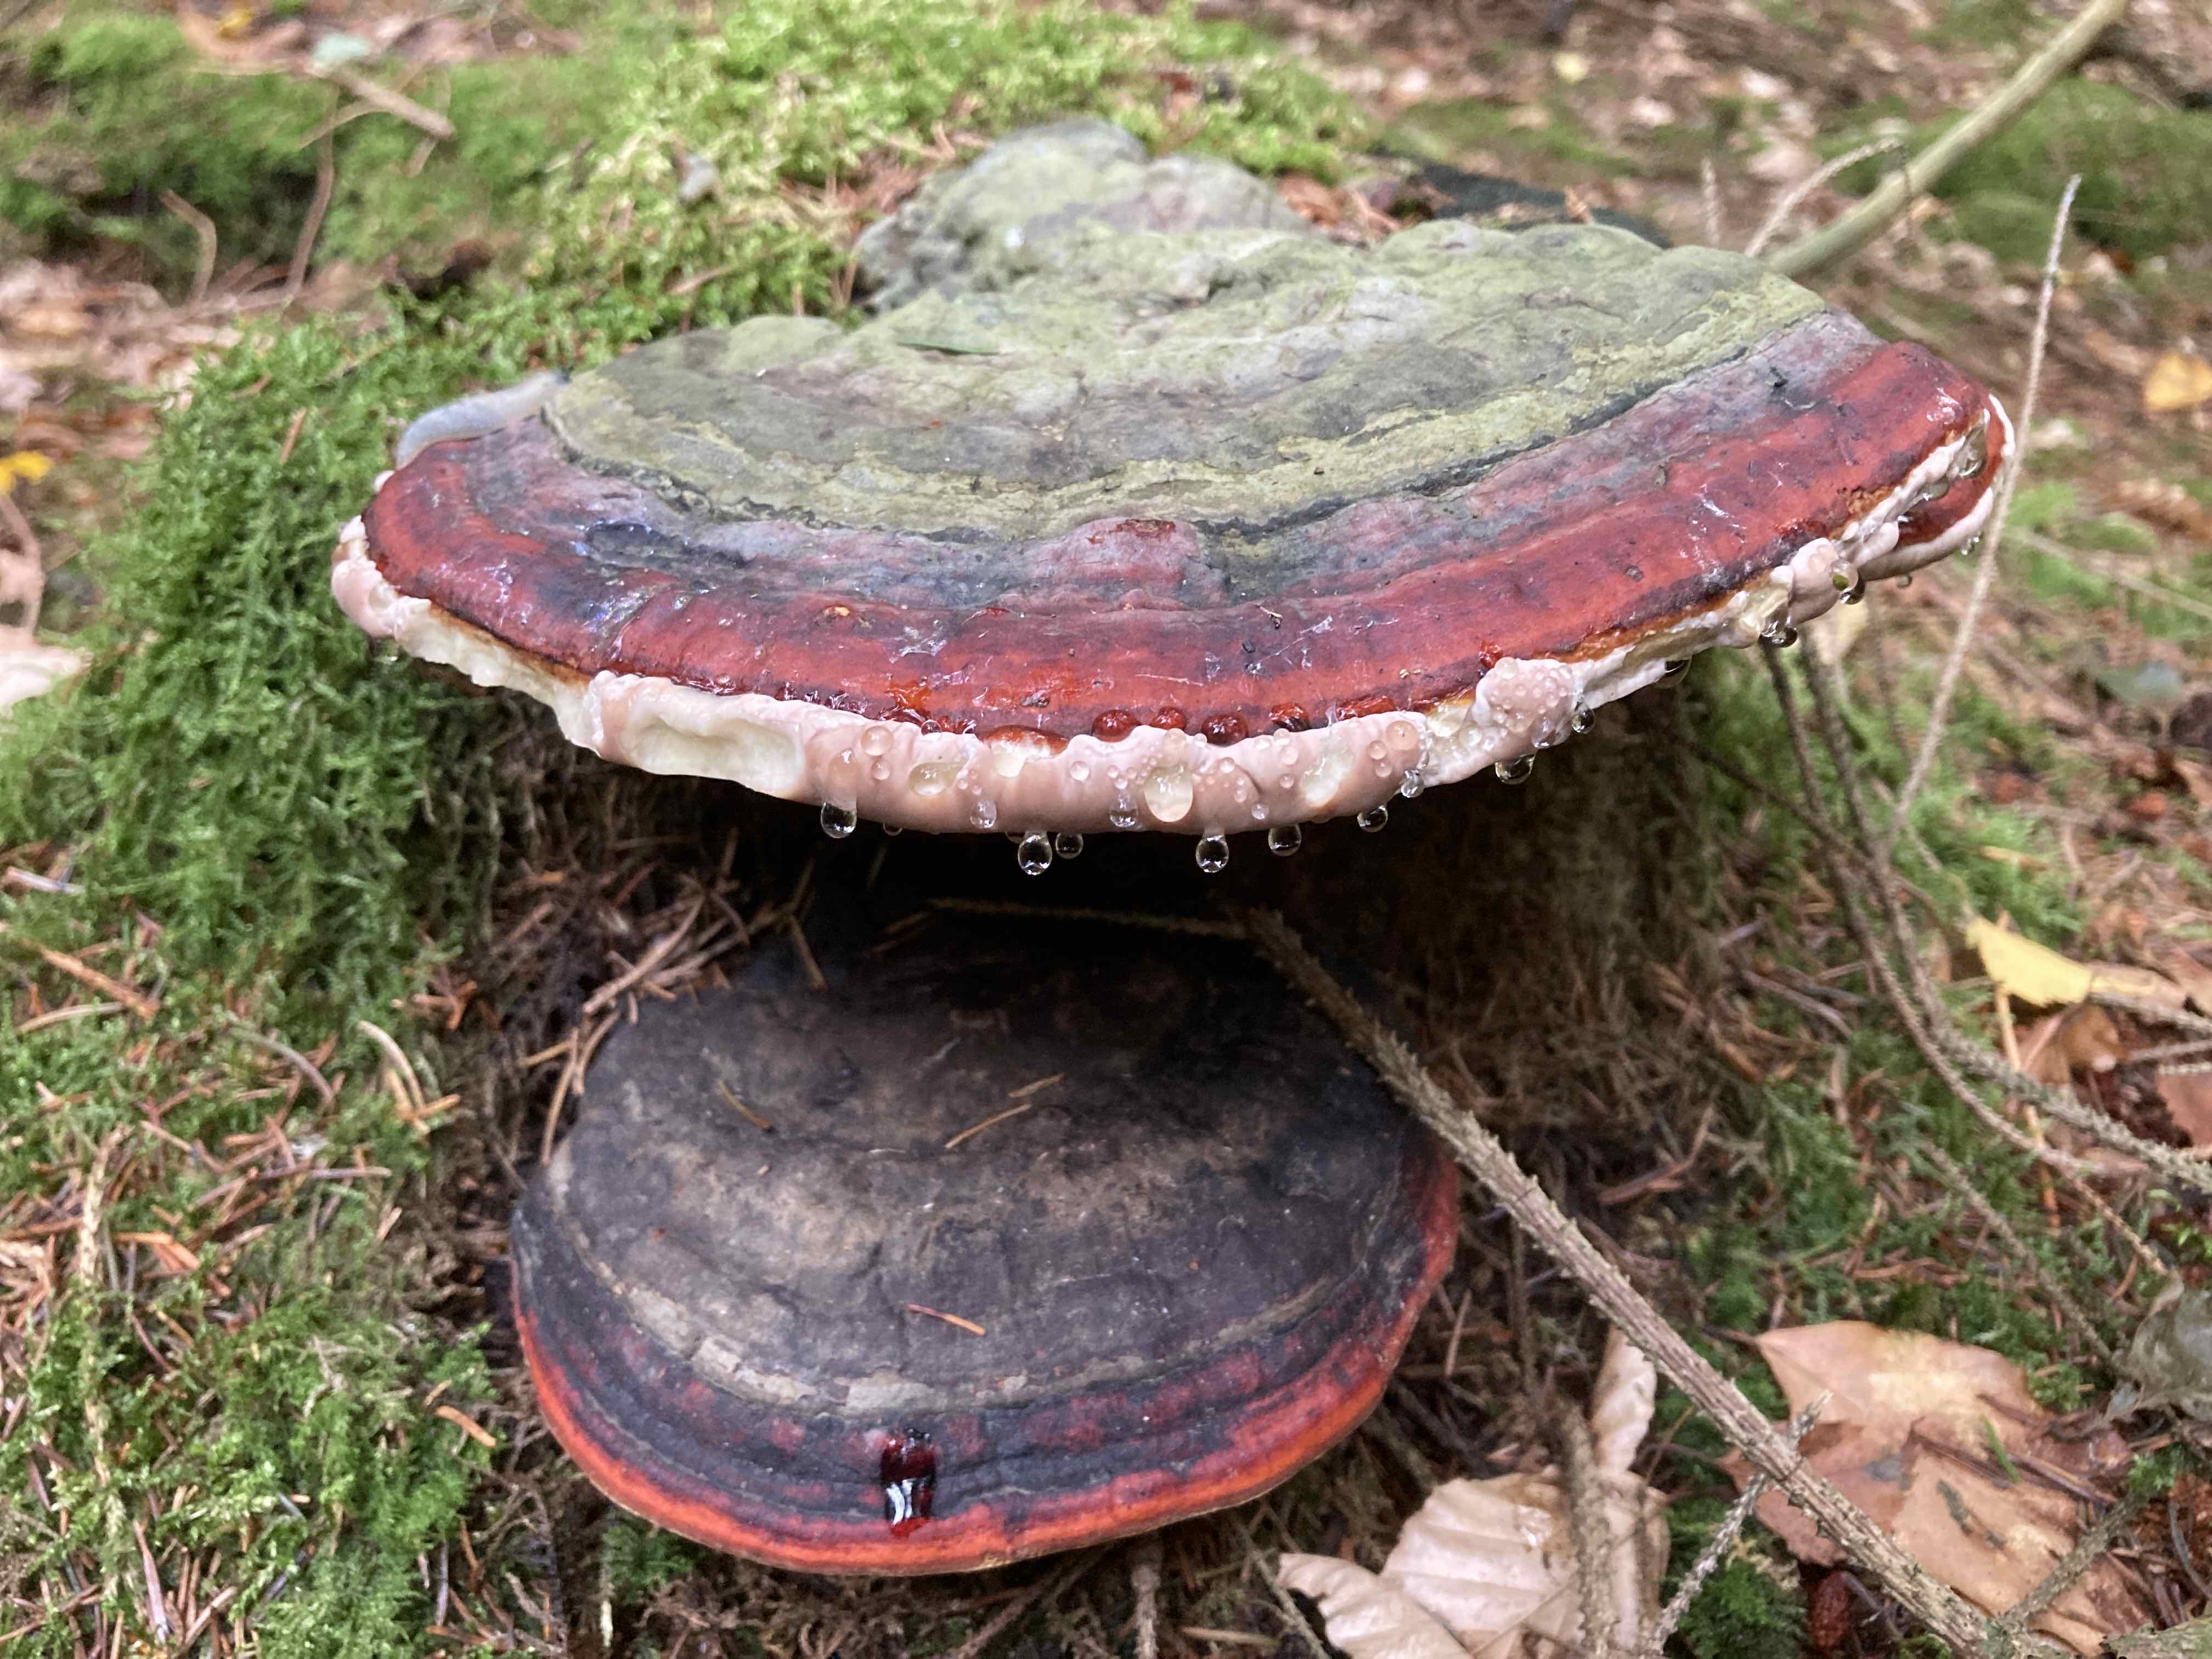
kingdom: Fungi
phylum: Basidiomycota
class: Agaricomycetes
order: Polyporales
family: Fomitopsidaceae
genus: Fomitopsis
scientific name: Fomitopsis pinicola
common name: randbæltet hovporesvamp
